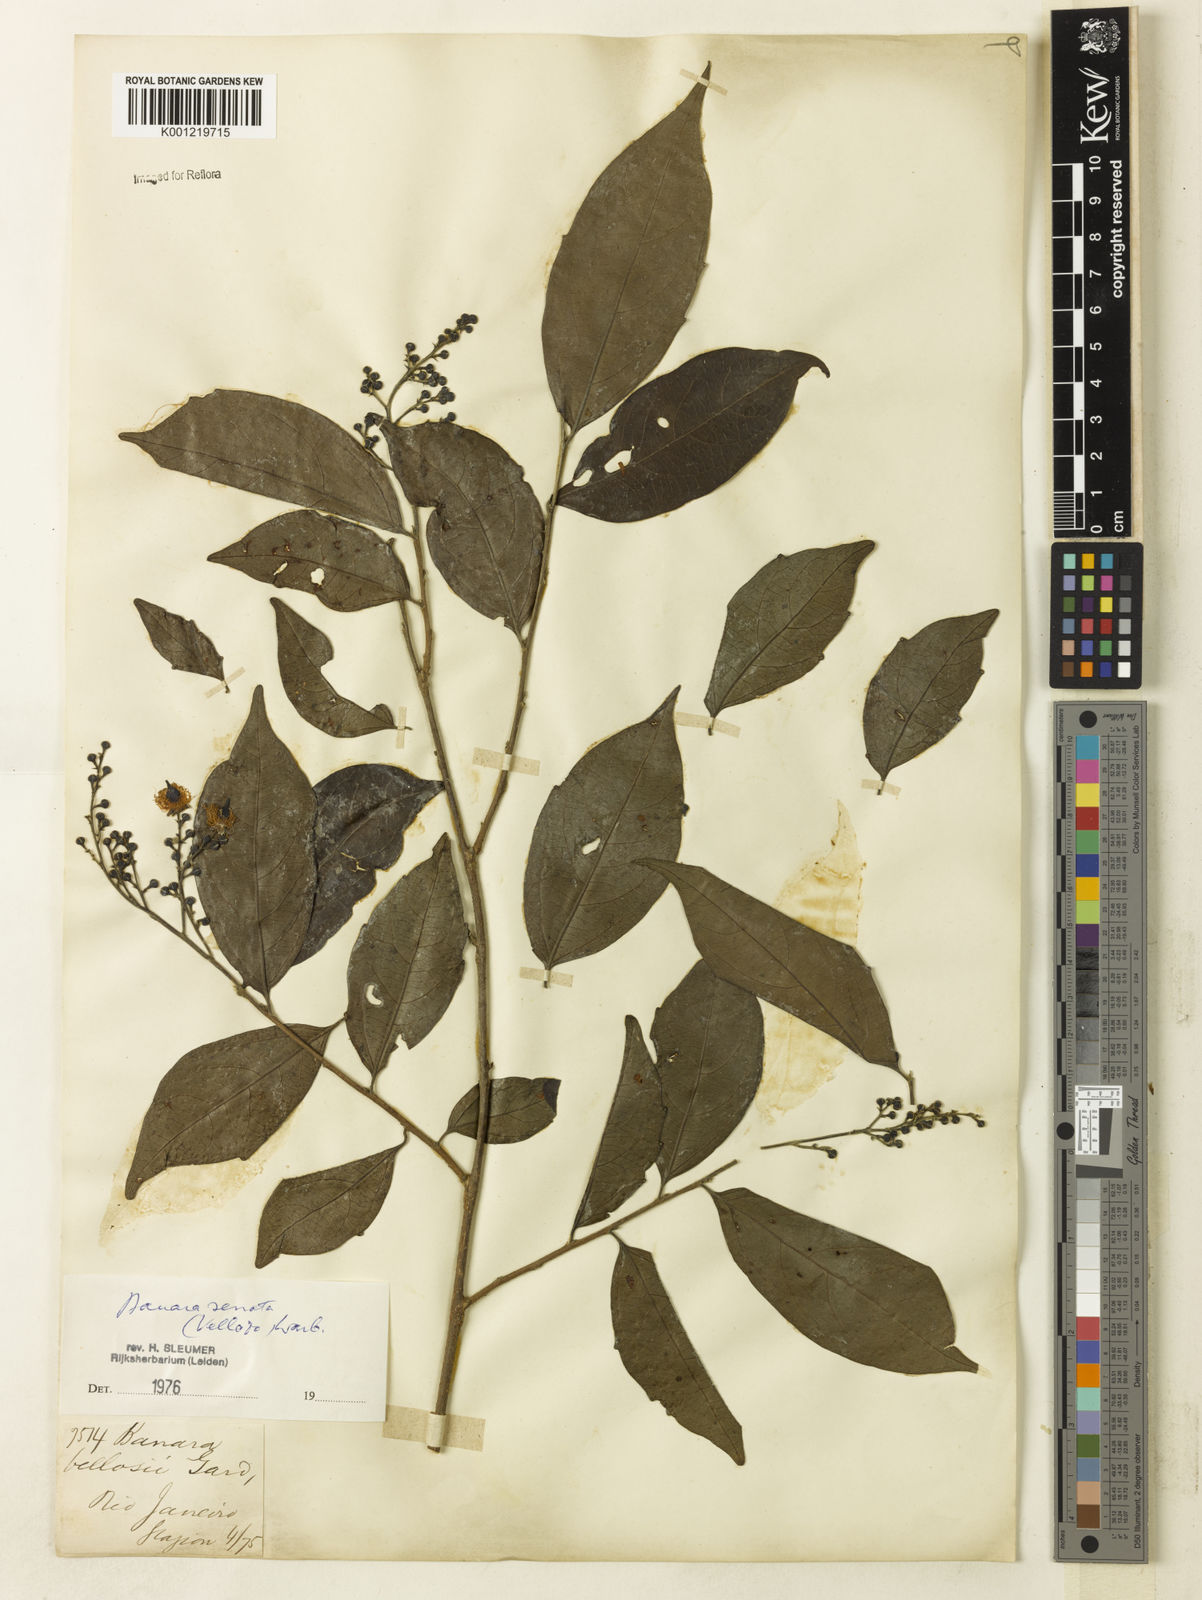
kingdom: Plantae
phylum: Tracheophyta
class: Magnoliopsida
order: Malpighiales
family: Salicaceae
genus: Banara
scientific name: Banara serrata
